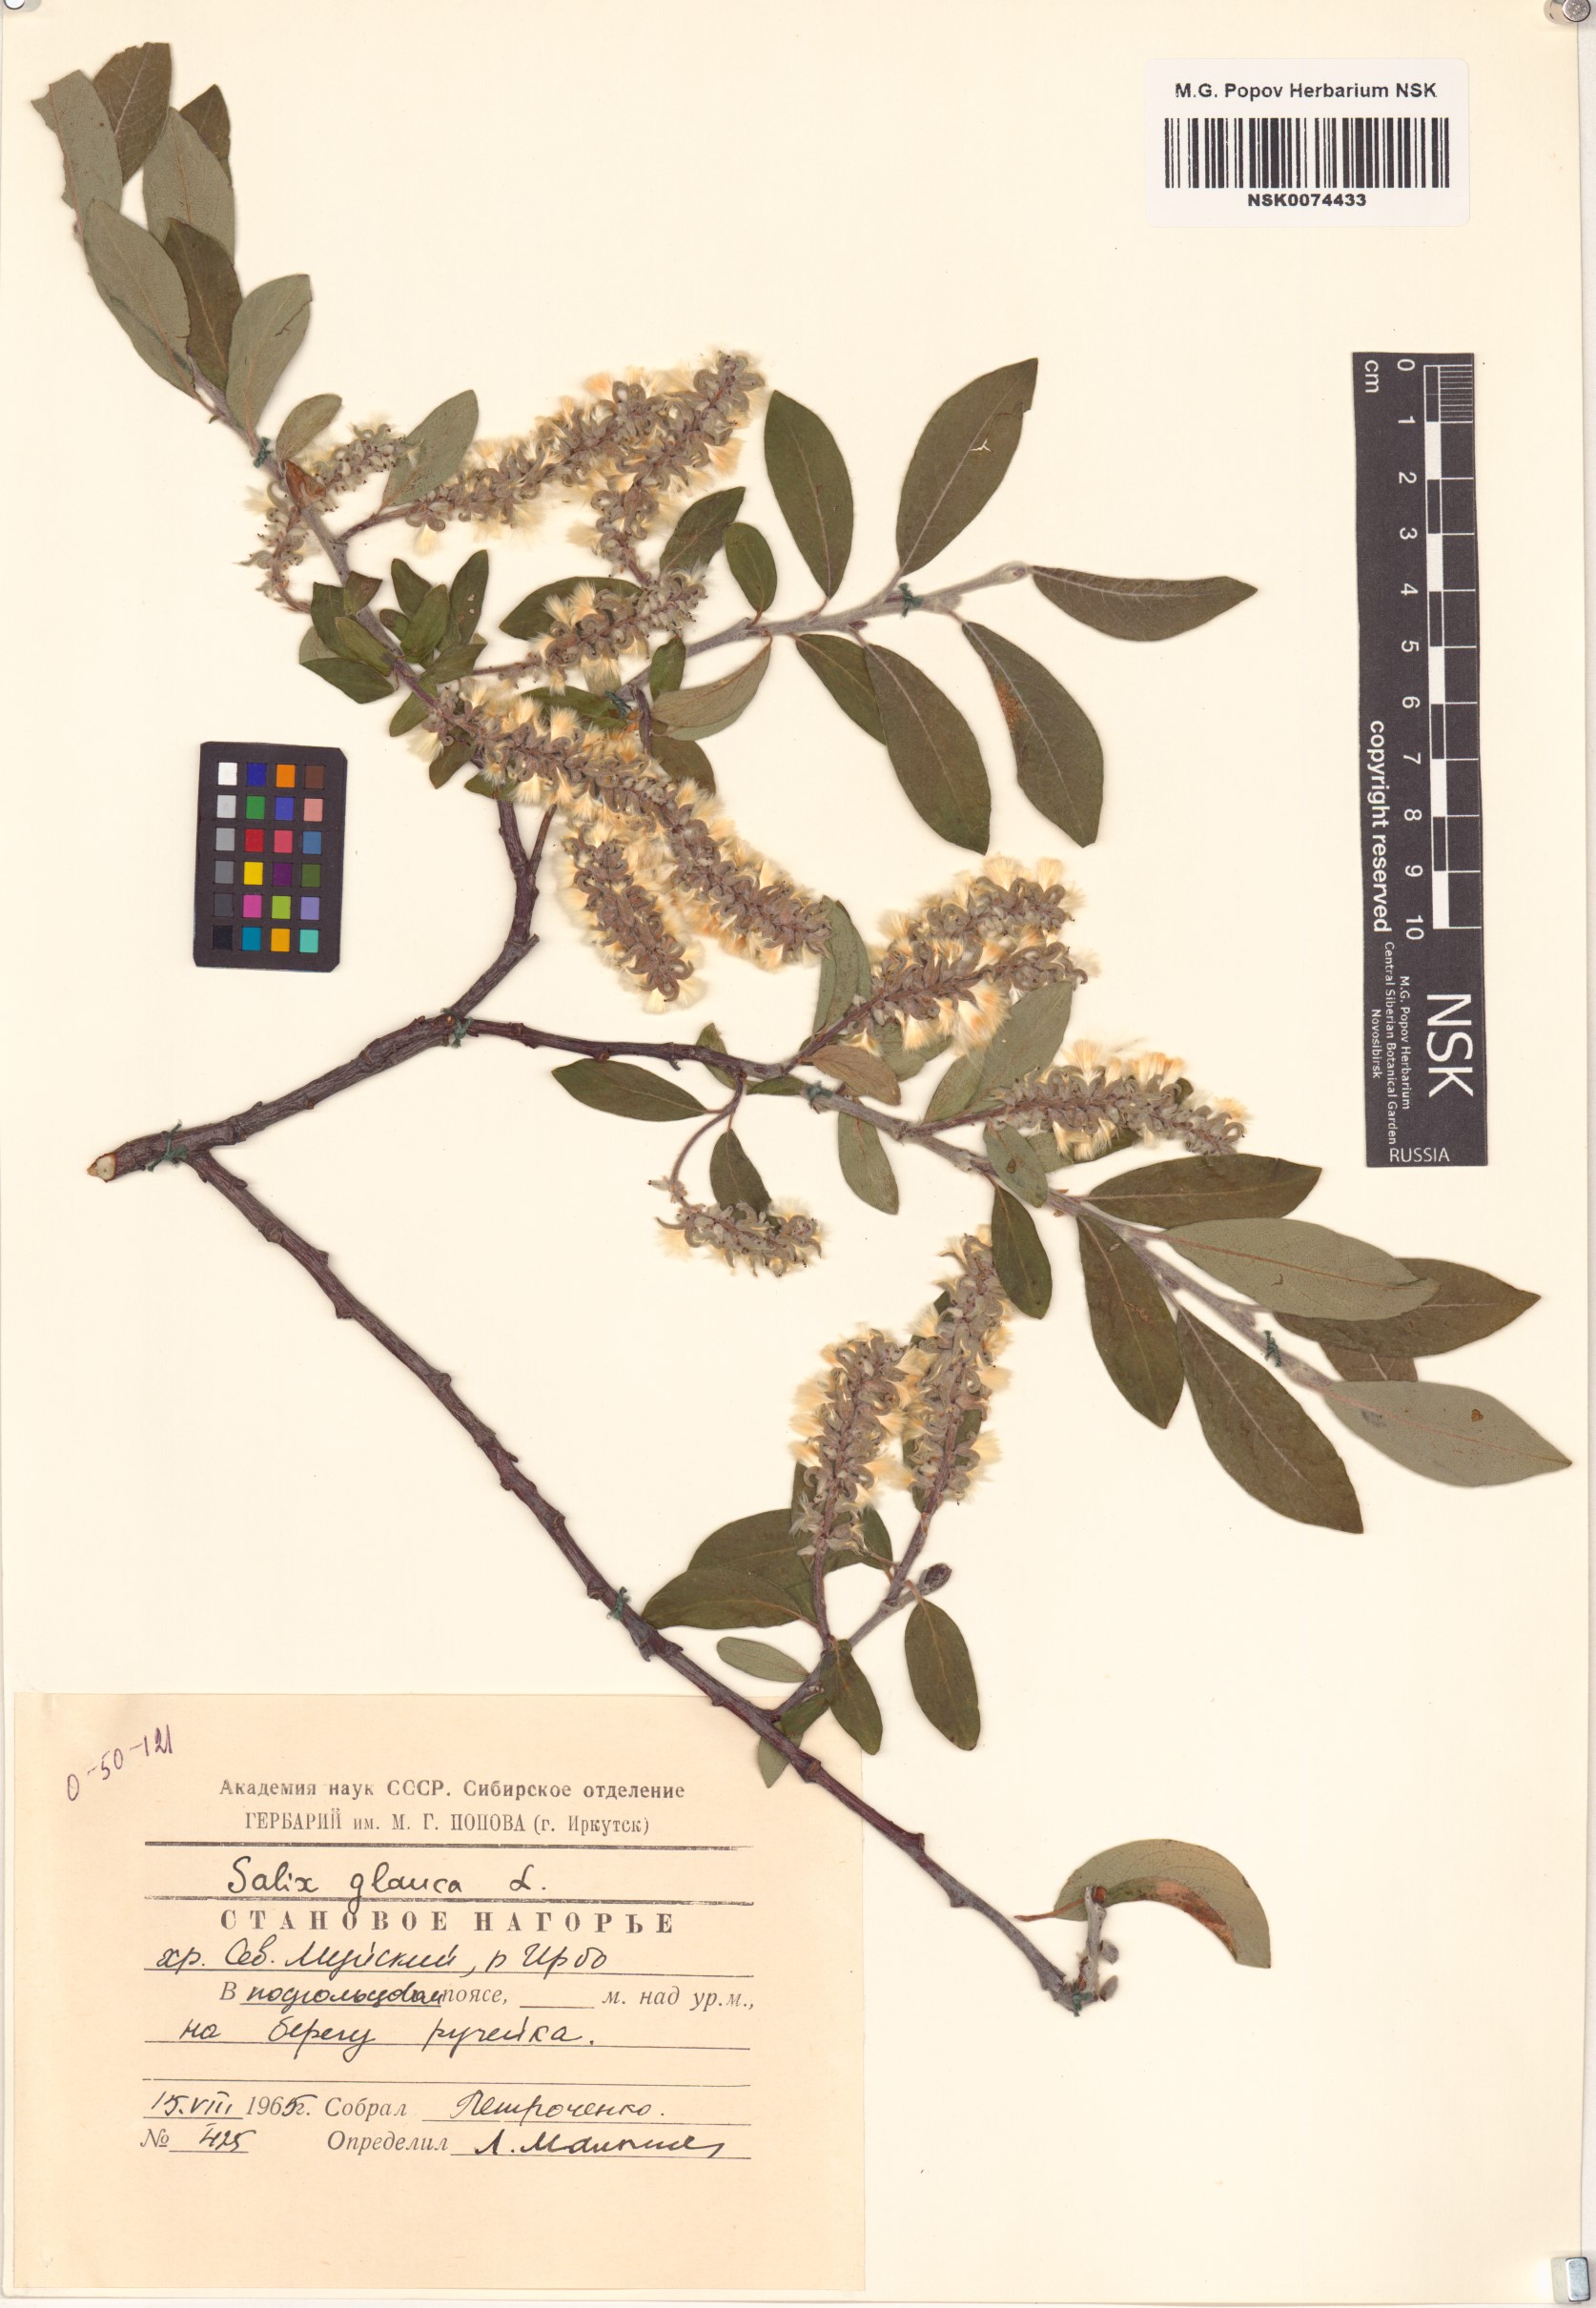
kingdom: Plantae
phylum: Tracheophyta
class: Magnoliopsida
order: Malpighiales
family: Salicaceae
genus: Salix
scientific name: Salix glauca
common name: Glaucous willow
